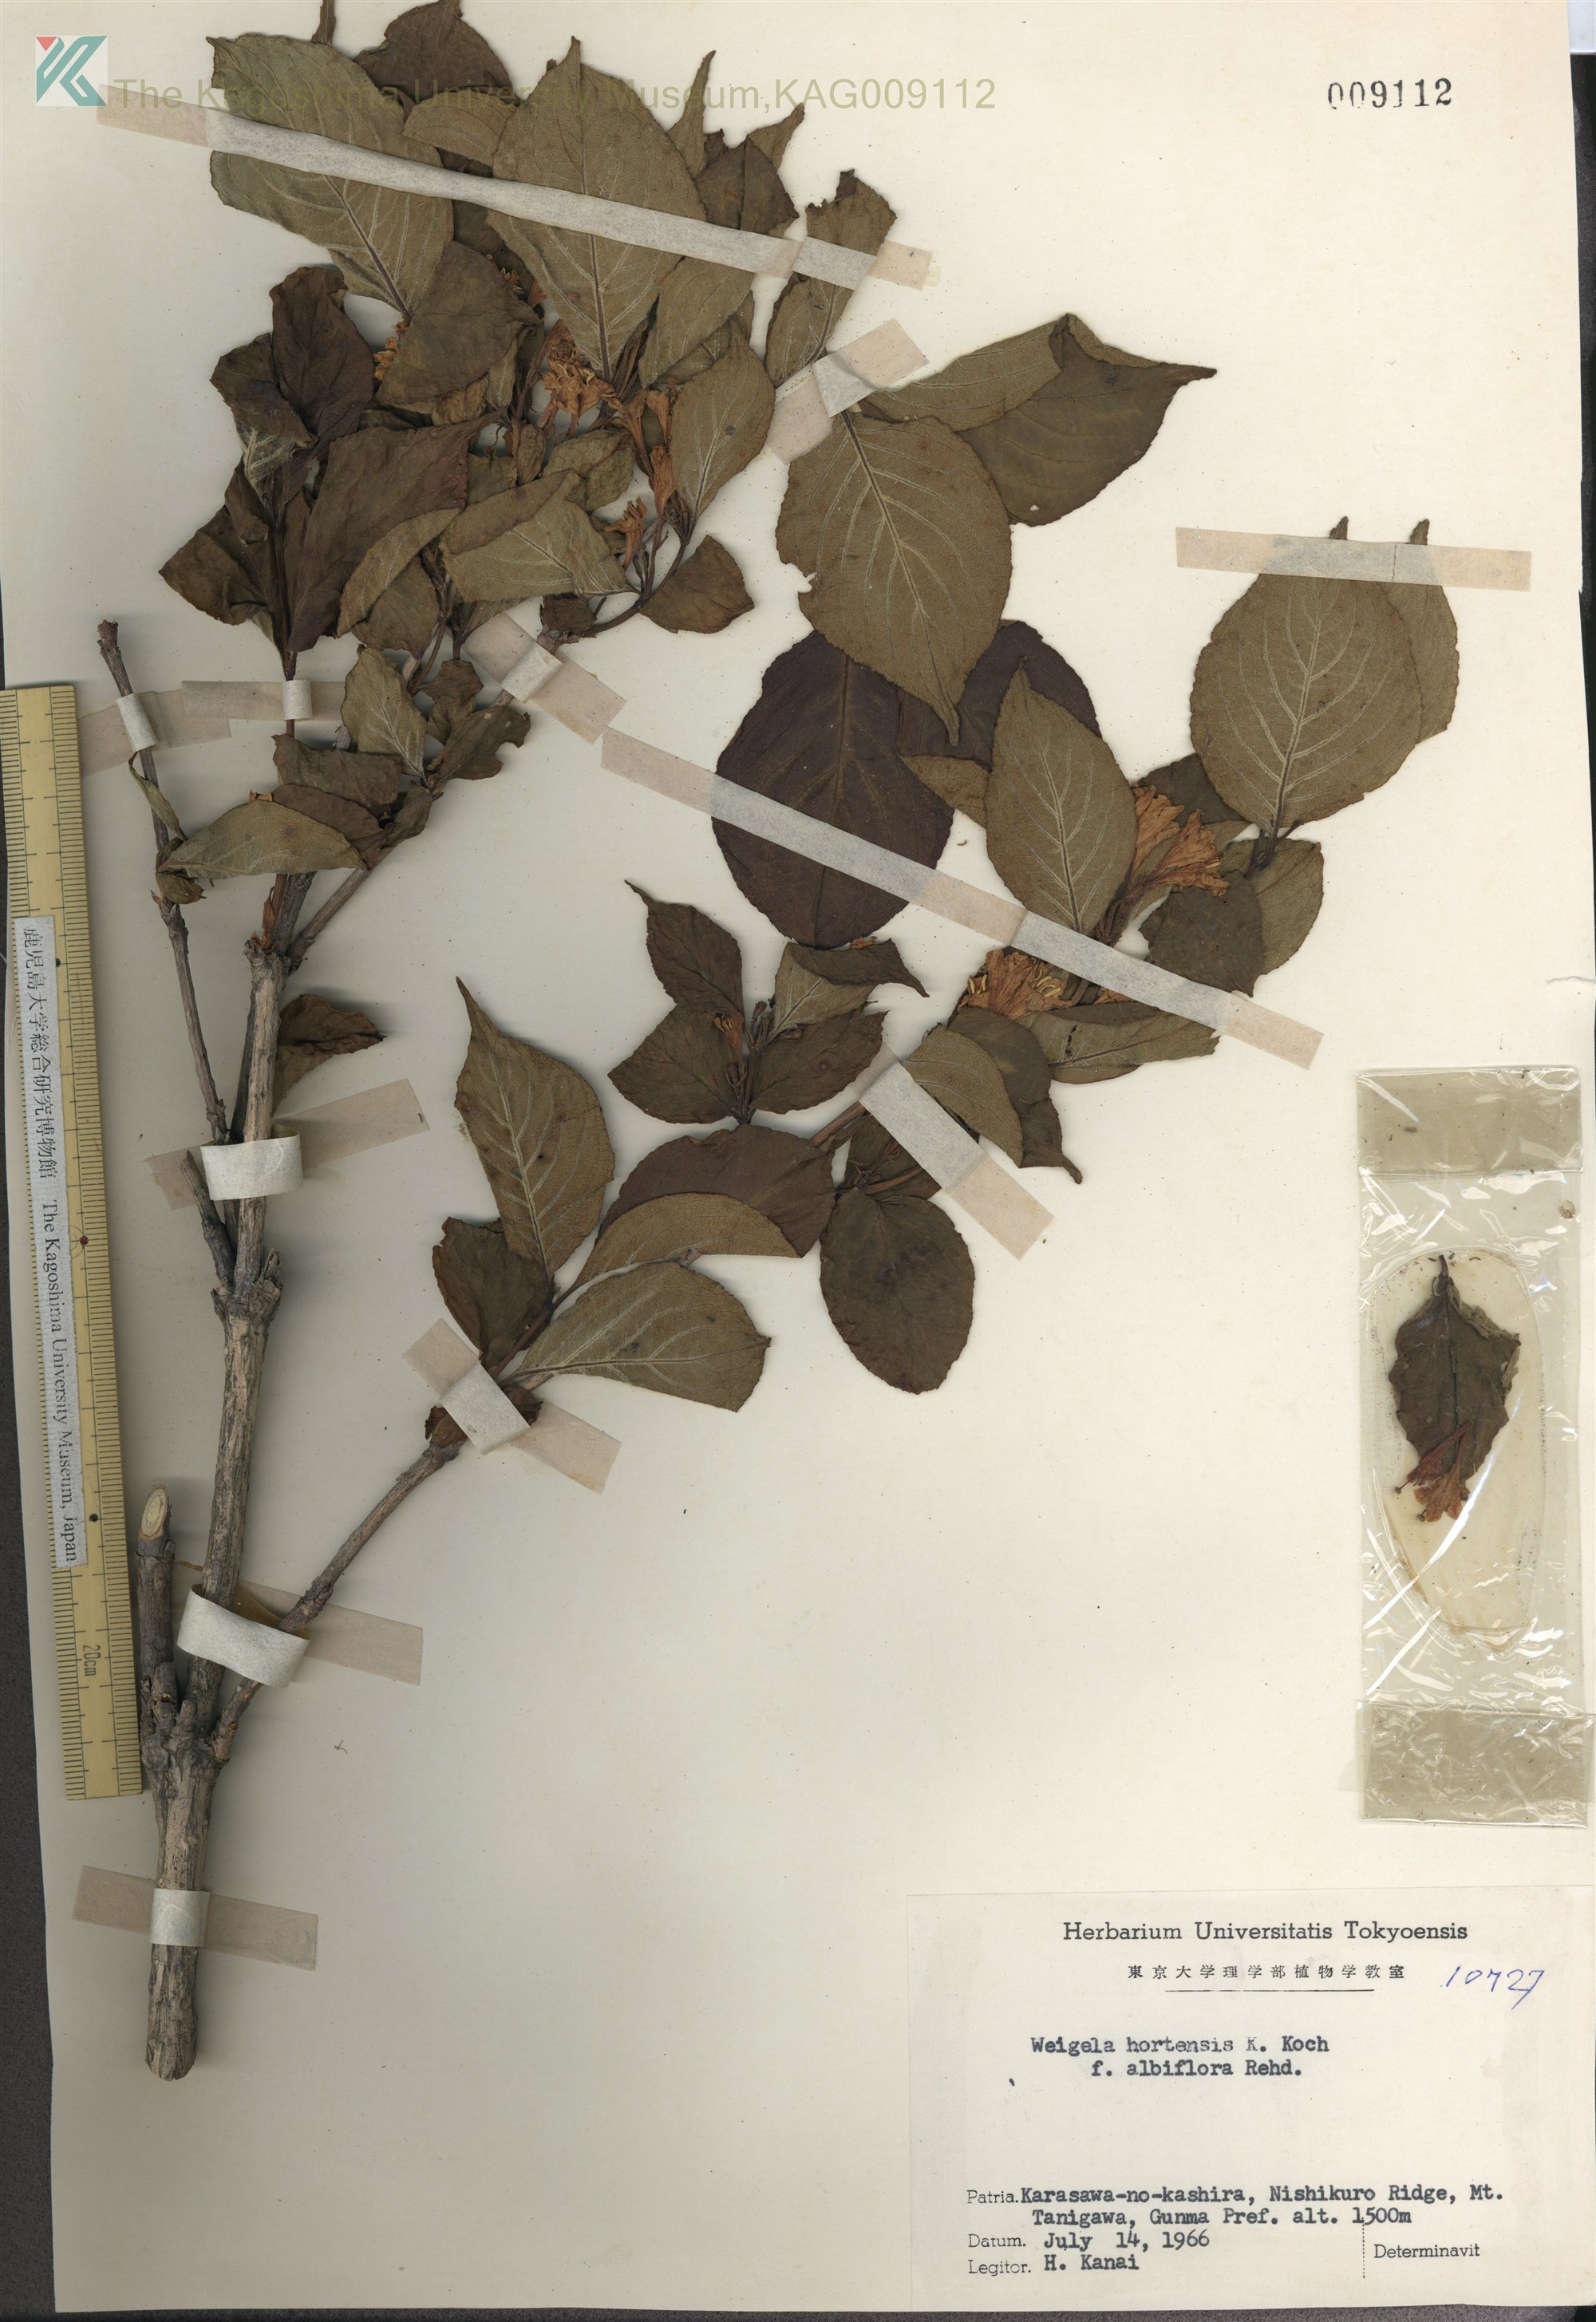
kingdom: Plantae
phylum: Tracheophyta
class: Magnoliopsida
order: Dipsacales
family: Caprifoliaceae
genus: Weigela
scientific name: Weigela hortensis
